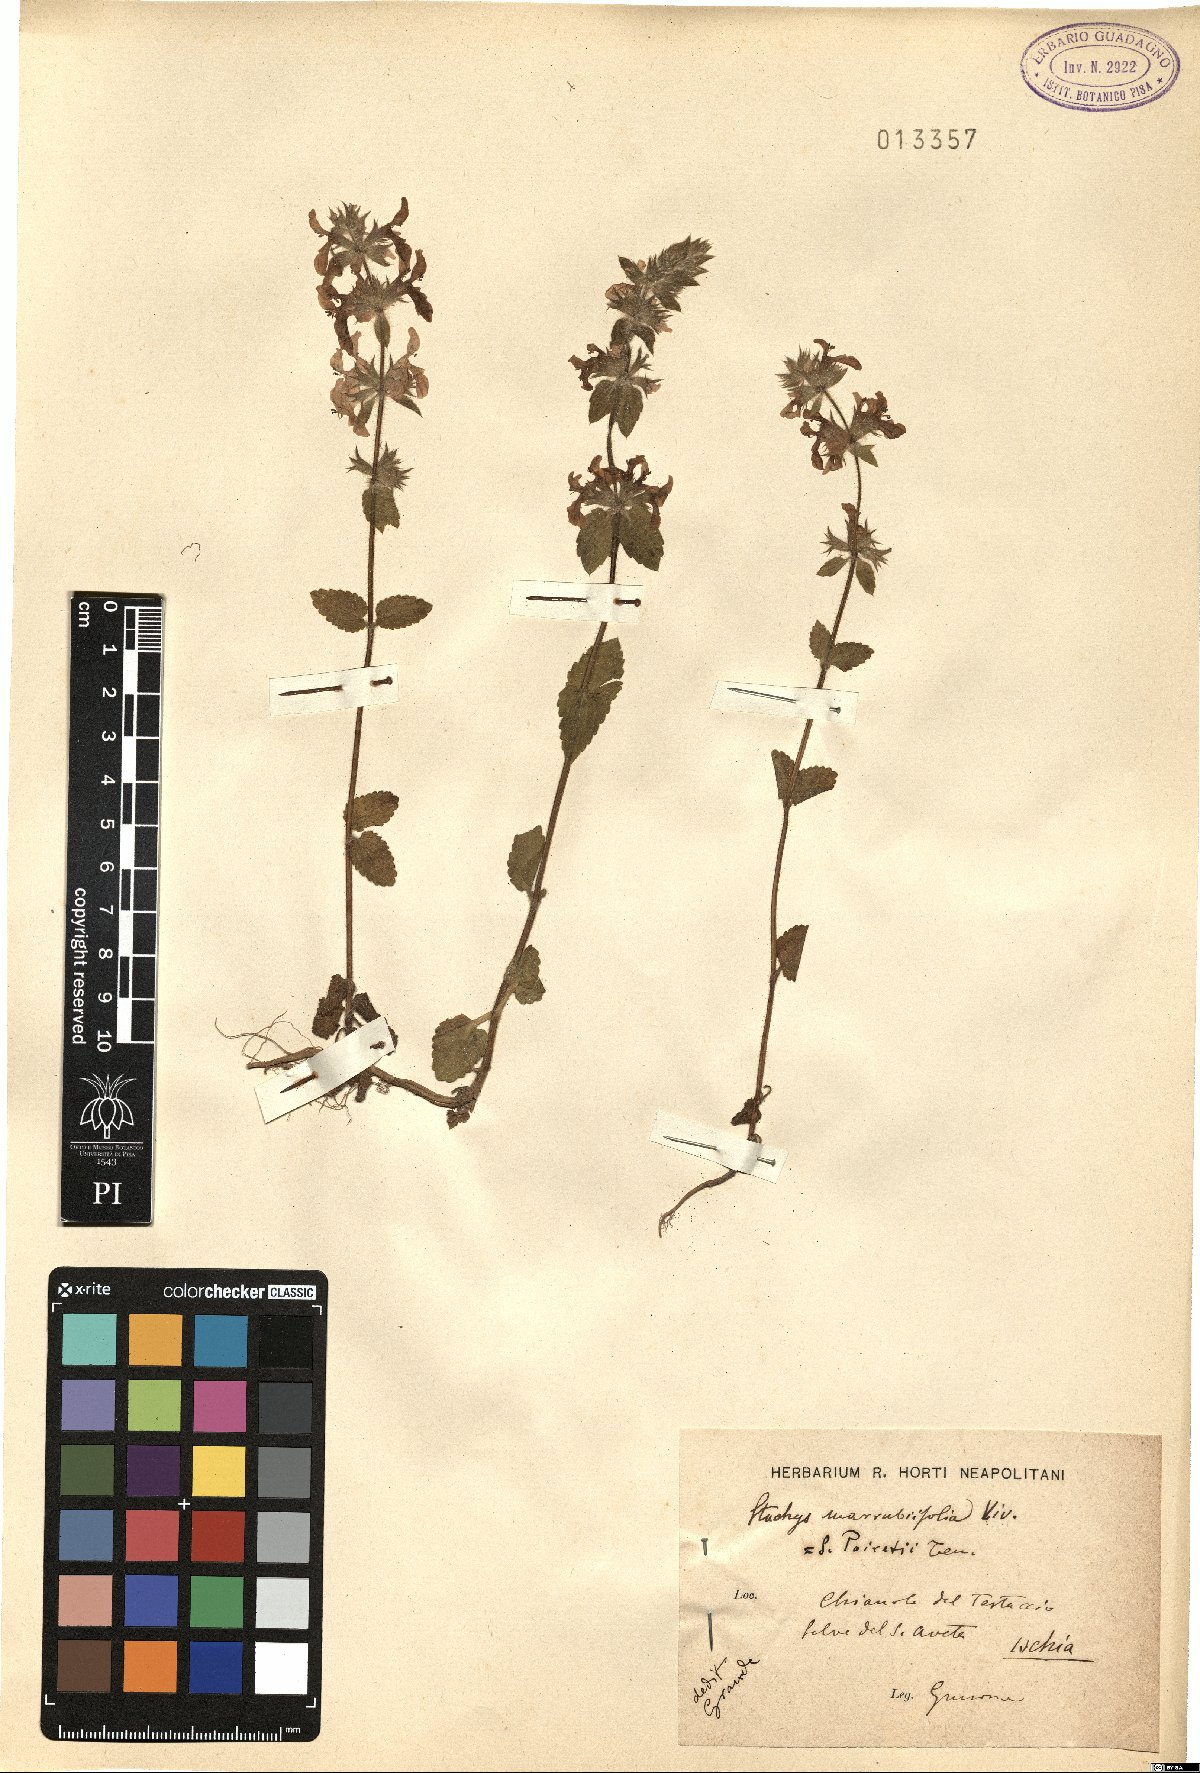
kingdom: Plantae
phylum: Tracheophyta
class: Magnoliopsida
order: Lamiales
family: Lamiaceae
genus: Stachys
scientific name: Stachys marrubiifolia
